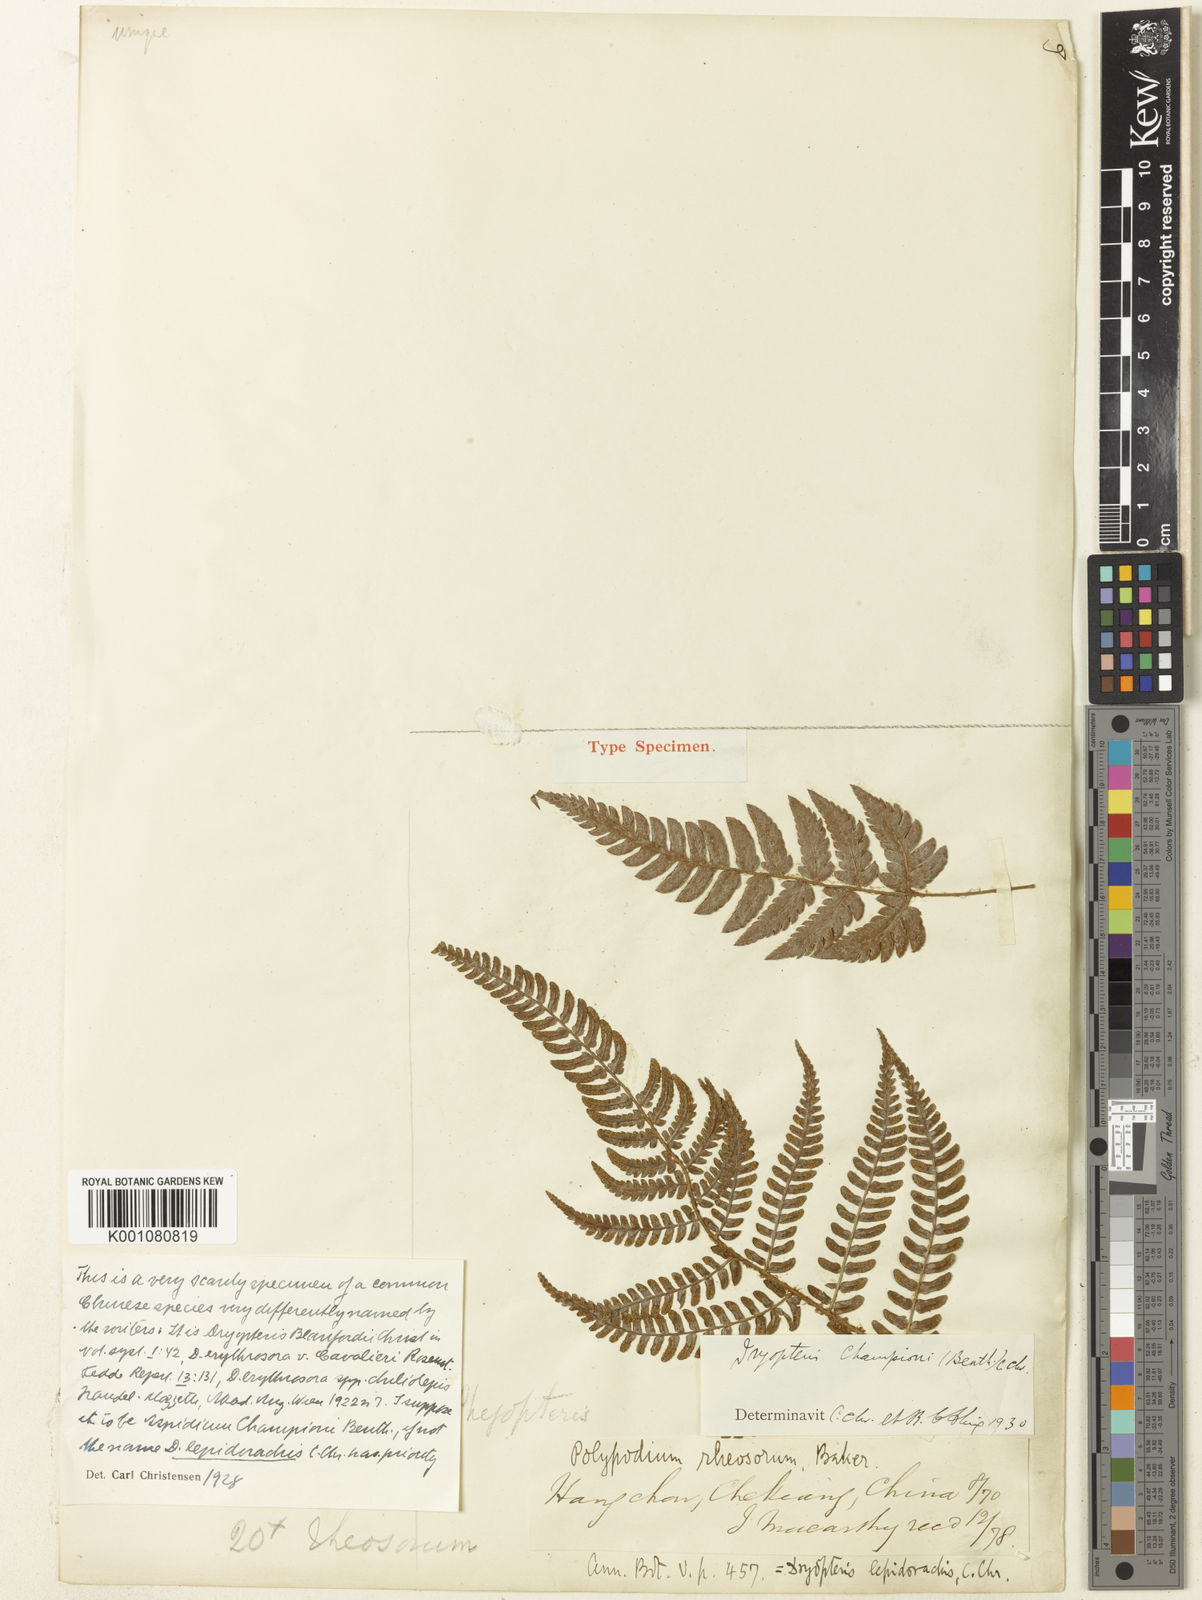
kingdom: Plantae
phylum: Tracheophyta
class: Polypodiopsida
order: Polypodiales
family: Dryopteridaceae
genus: Dryopteris
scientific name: Dryopteris championii
